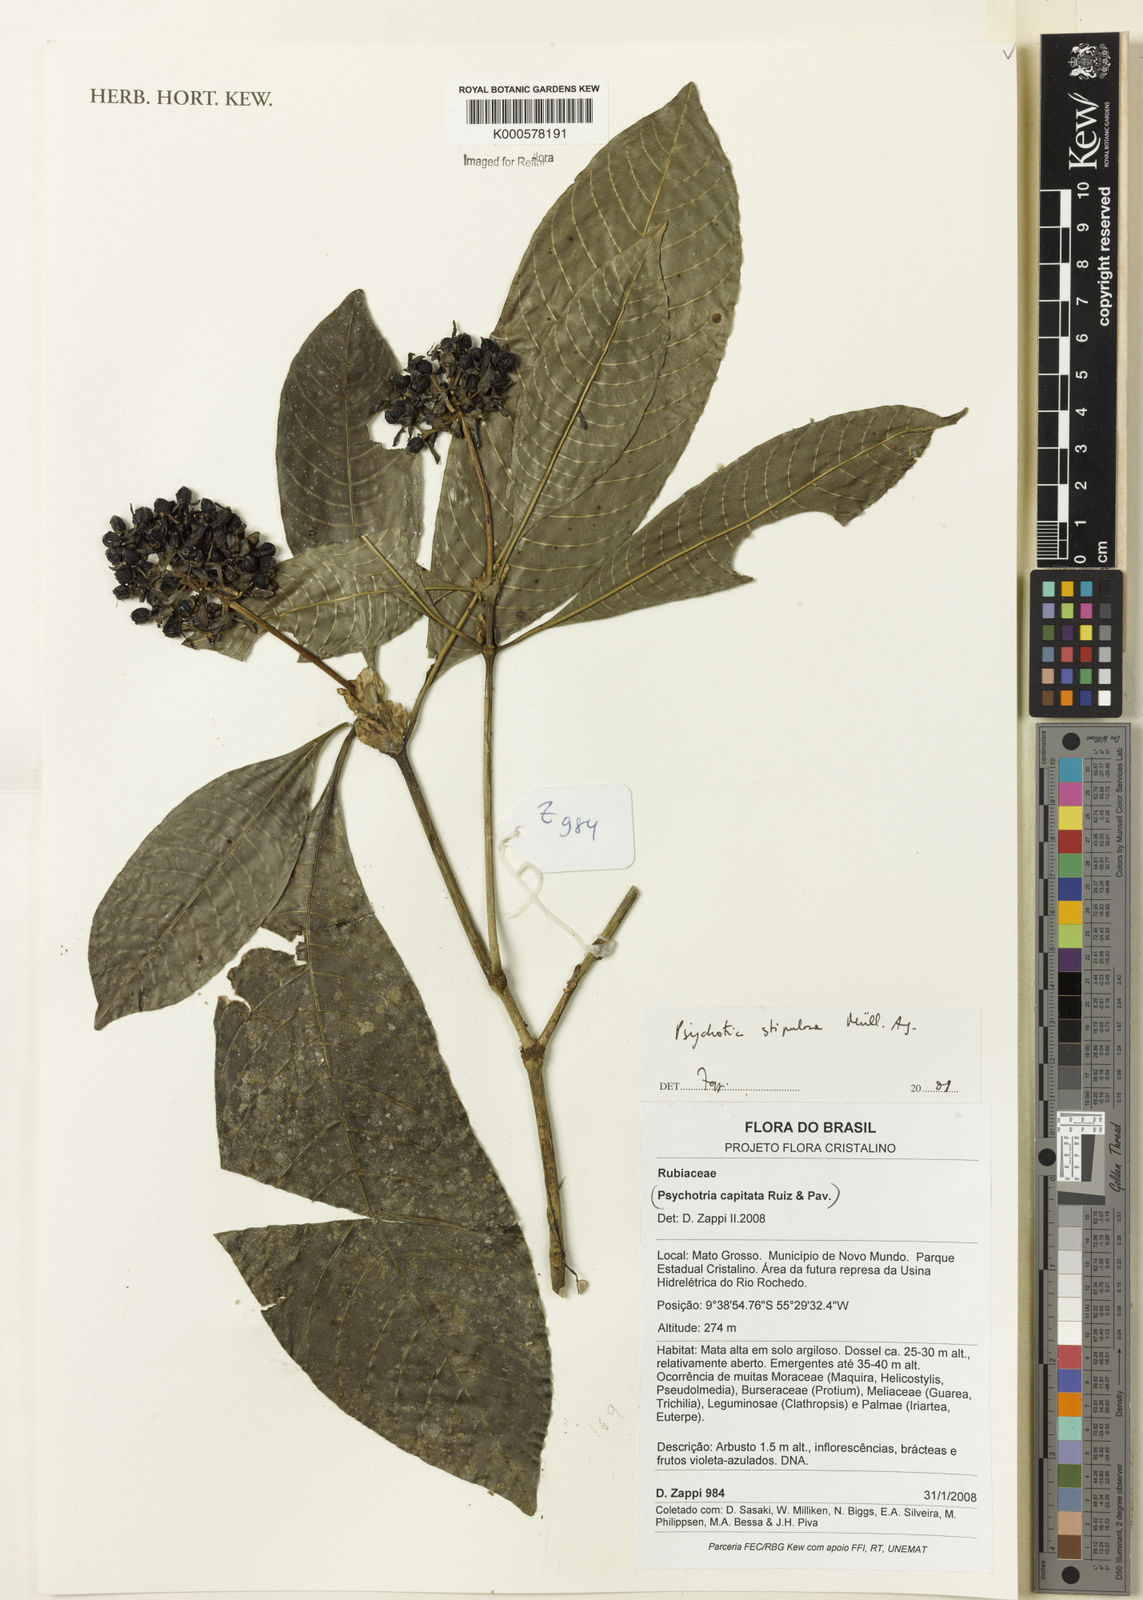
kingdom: Plantae
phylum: Tracheophyta
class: Magnoliopsida
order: Gentianales
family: Rubiaceae
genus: Psychotria
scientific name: Psychotria
